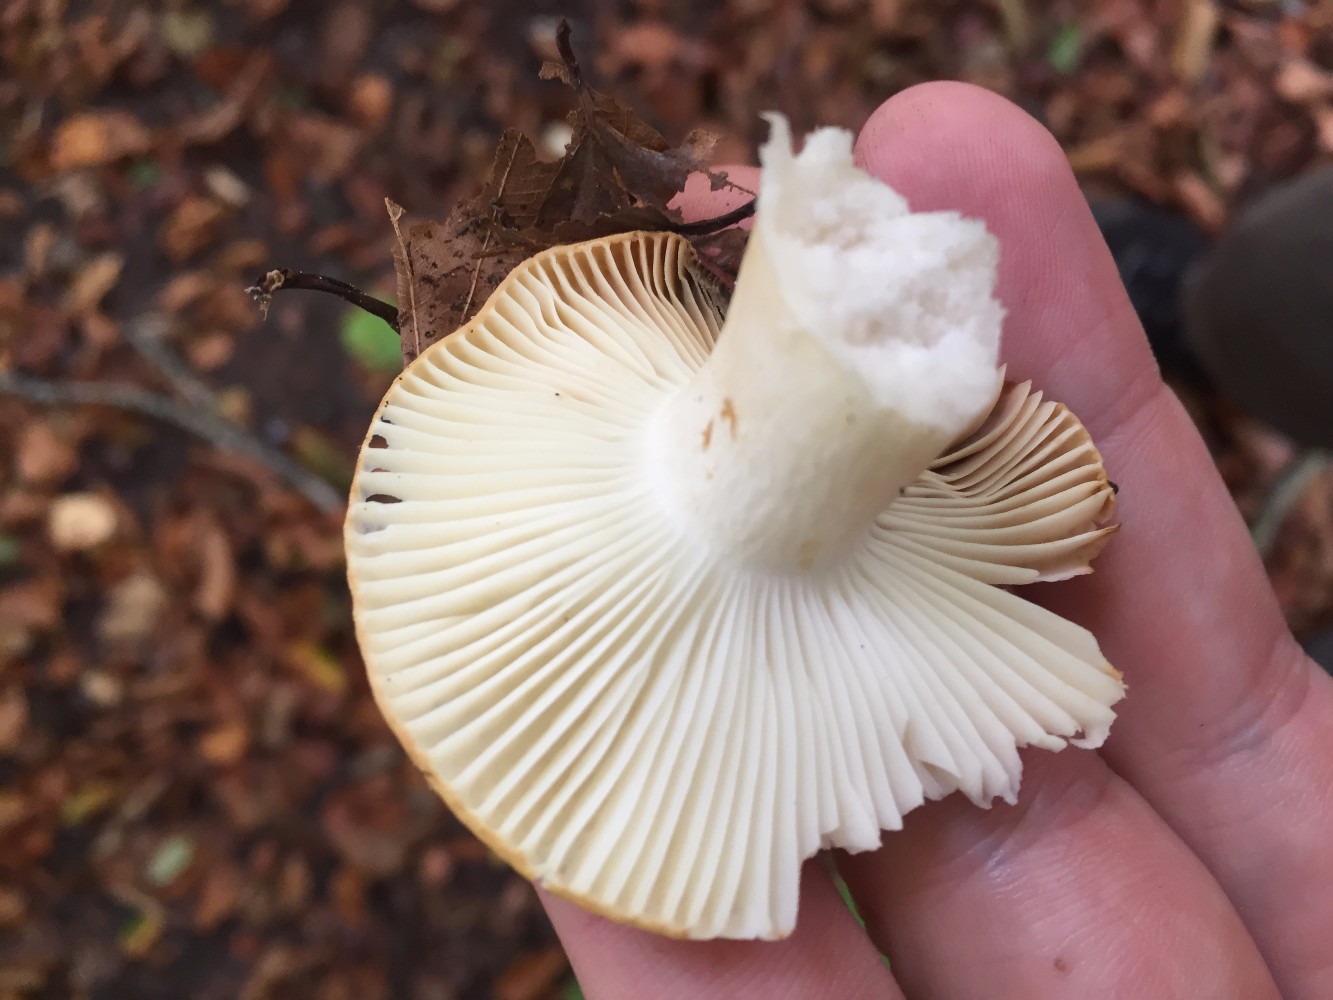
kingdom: Fungi
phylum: Basidiomycota
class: Agaricomycetes
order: Russulales
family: Russulaceae
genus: Russula
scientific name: Russula ochroleuca
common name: okkergul skørhat
